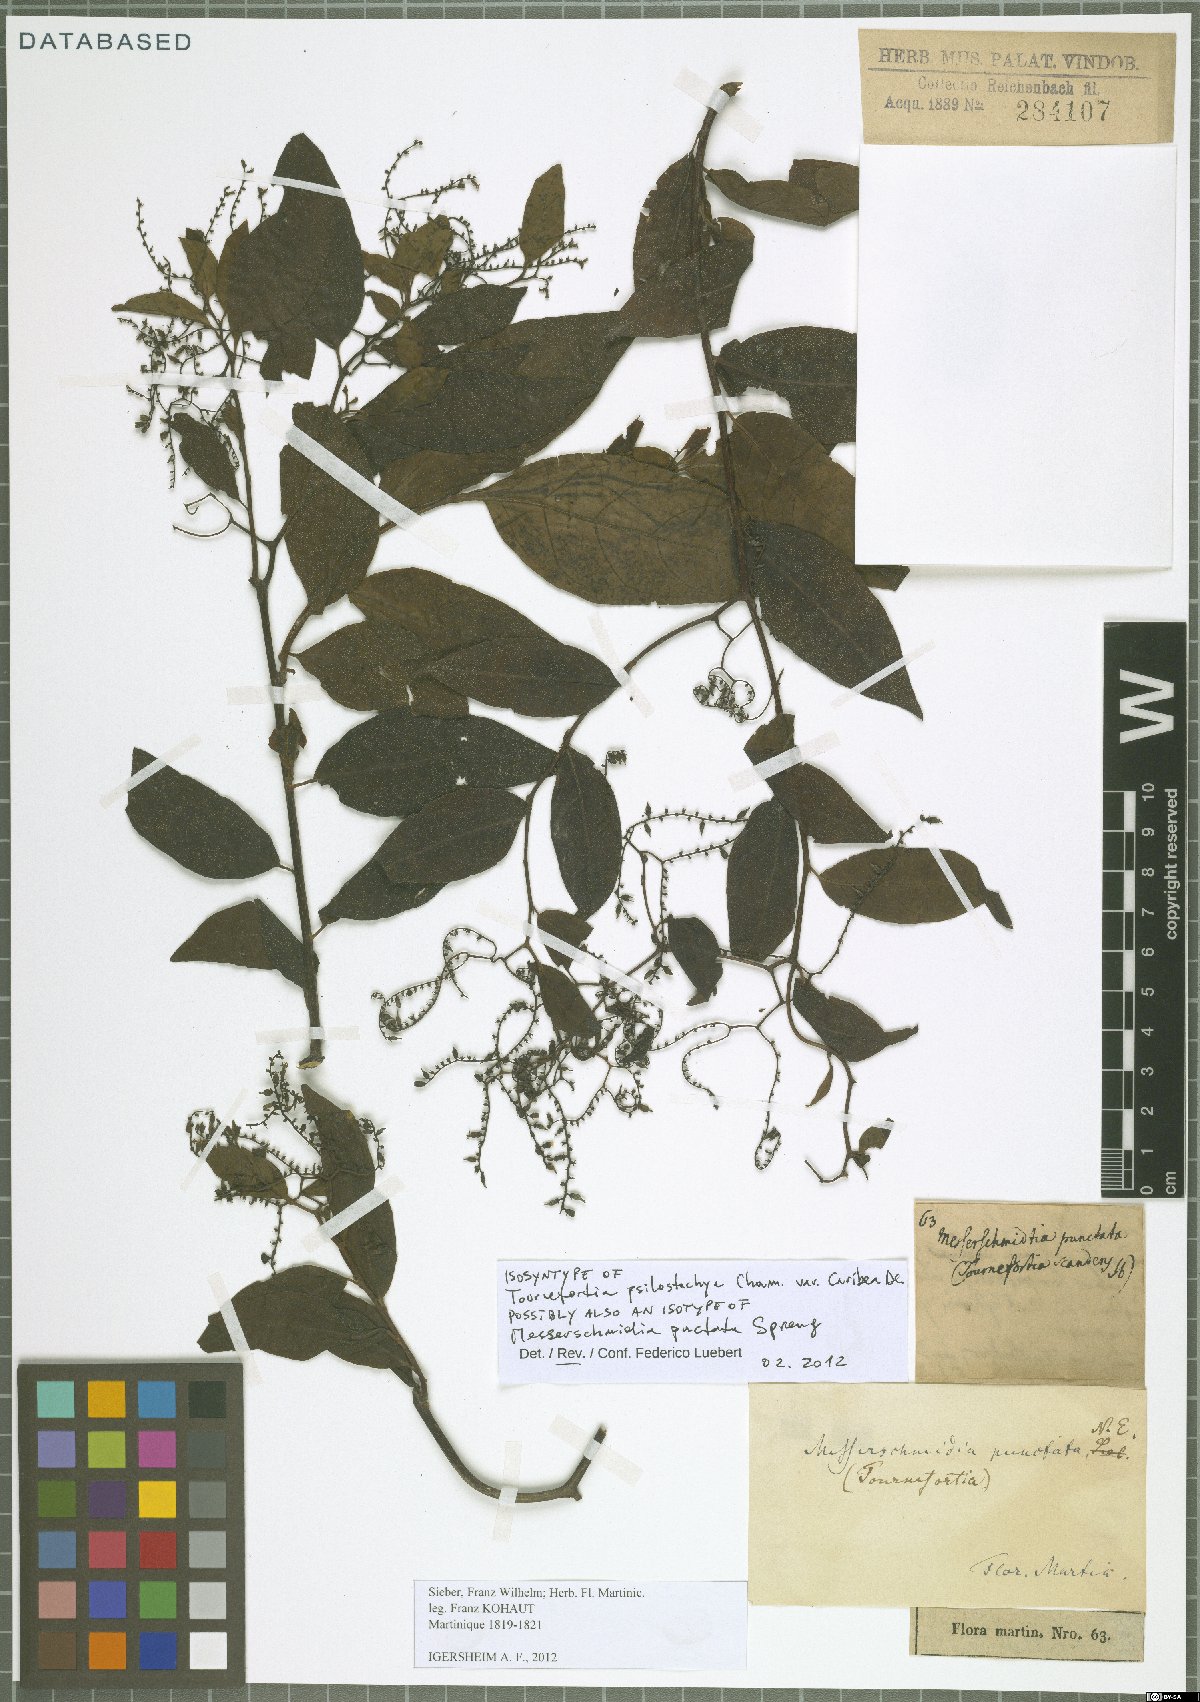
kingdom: Plantae
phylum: Tracheophyta
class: Magnoliopsida
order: Boraginales
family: Heliotropiaceae
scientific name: Heliotropiaceae
